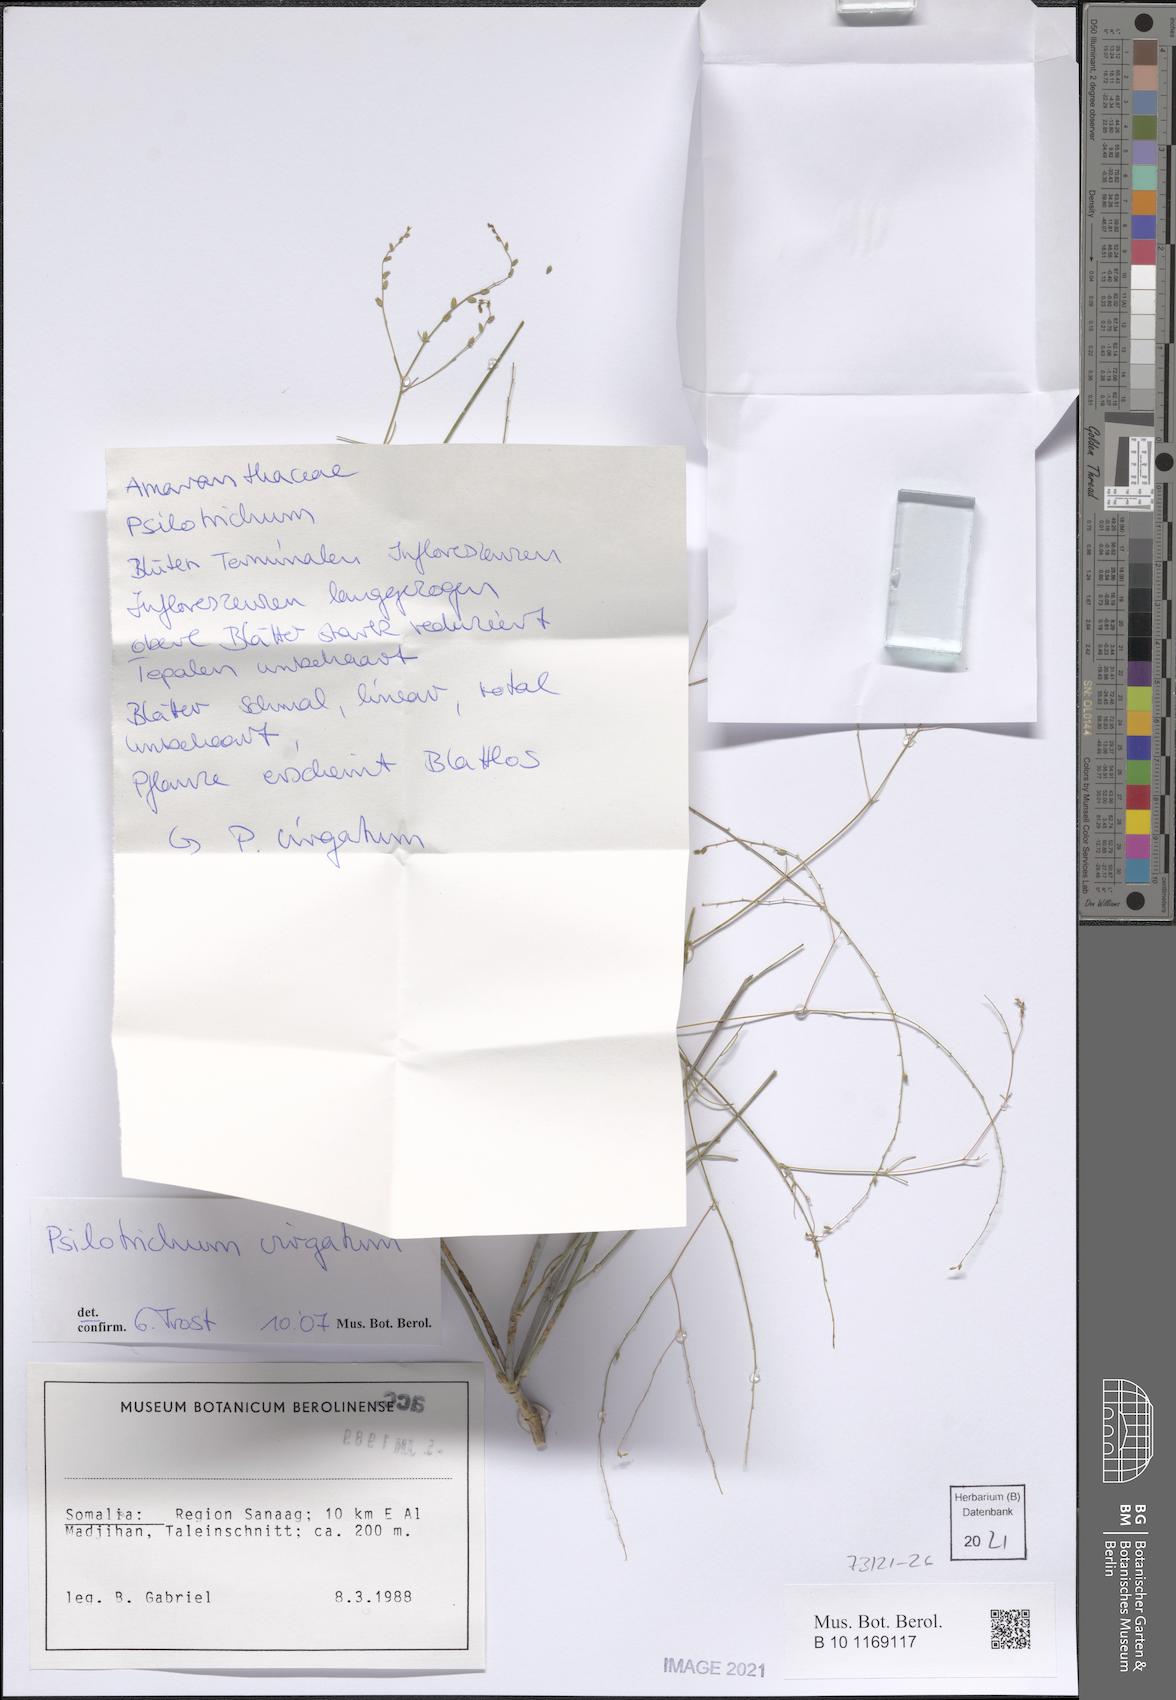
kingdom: Plantae
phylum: Tracheophyta
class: Magnoliopsida
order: Caryophyllales
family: Amaranthaceae
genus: Psilotrichum
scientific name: Psilotrichum virgatum
